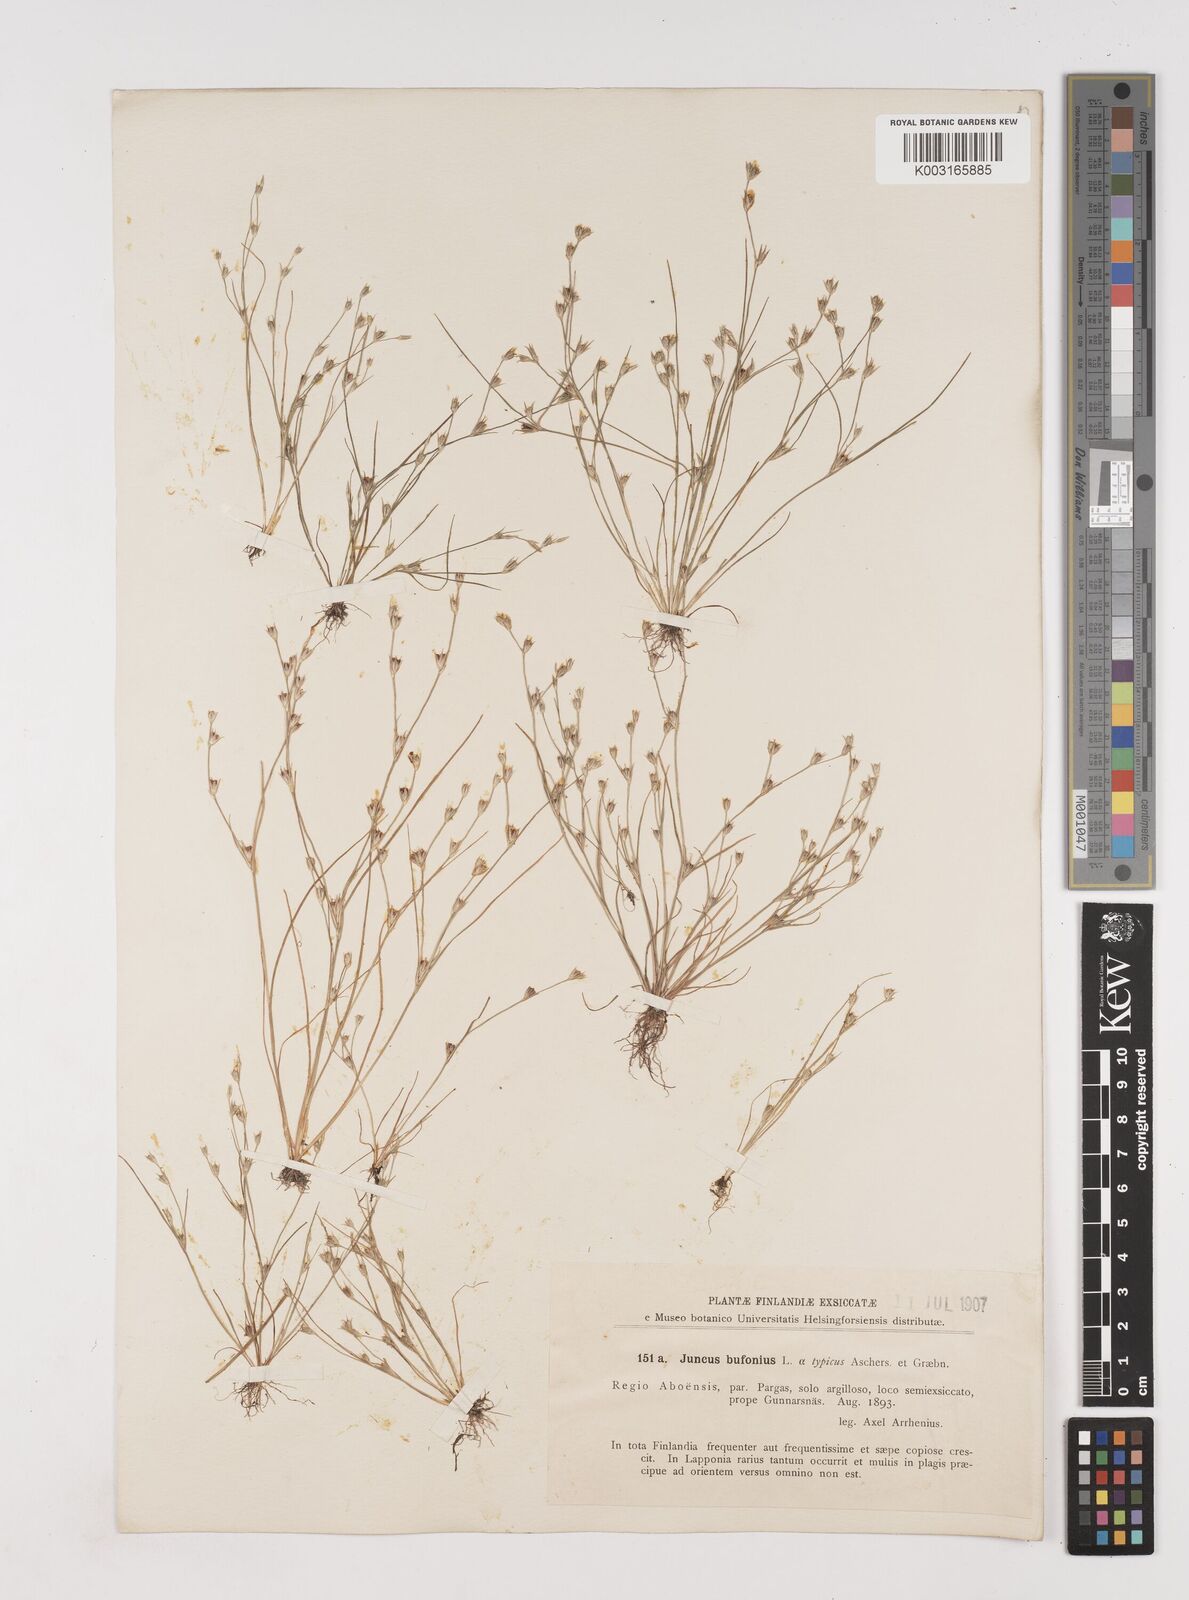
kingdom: Plantae
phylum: Tracheophyta
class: Liliopsida
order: Poales
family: Juncaceae
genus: Juncus
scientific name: Juncus bufonius
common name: Toad rush
